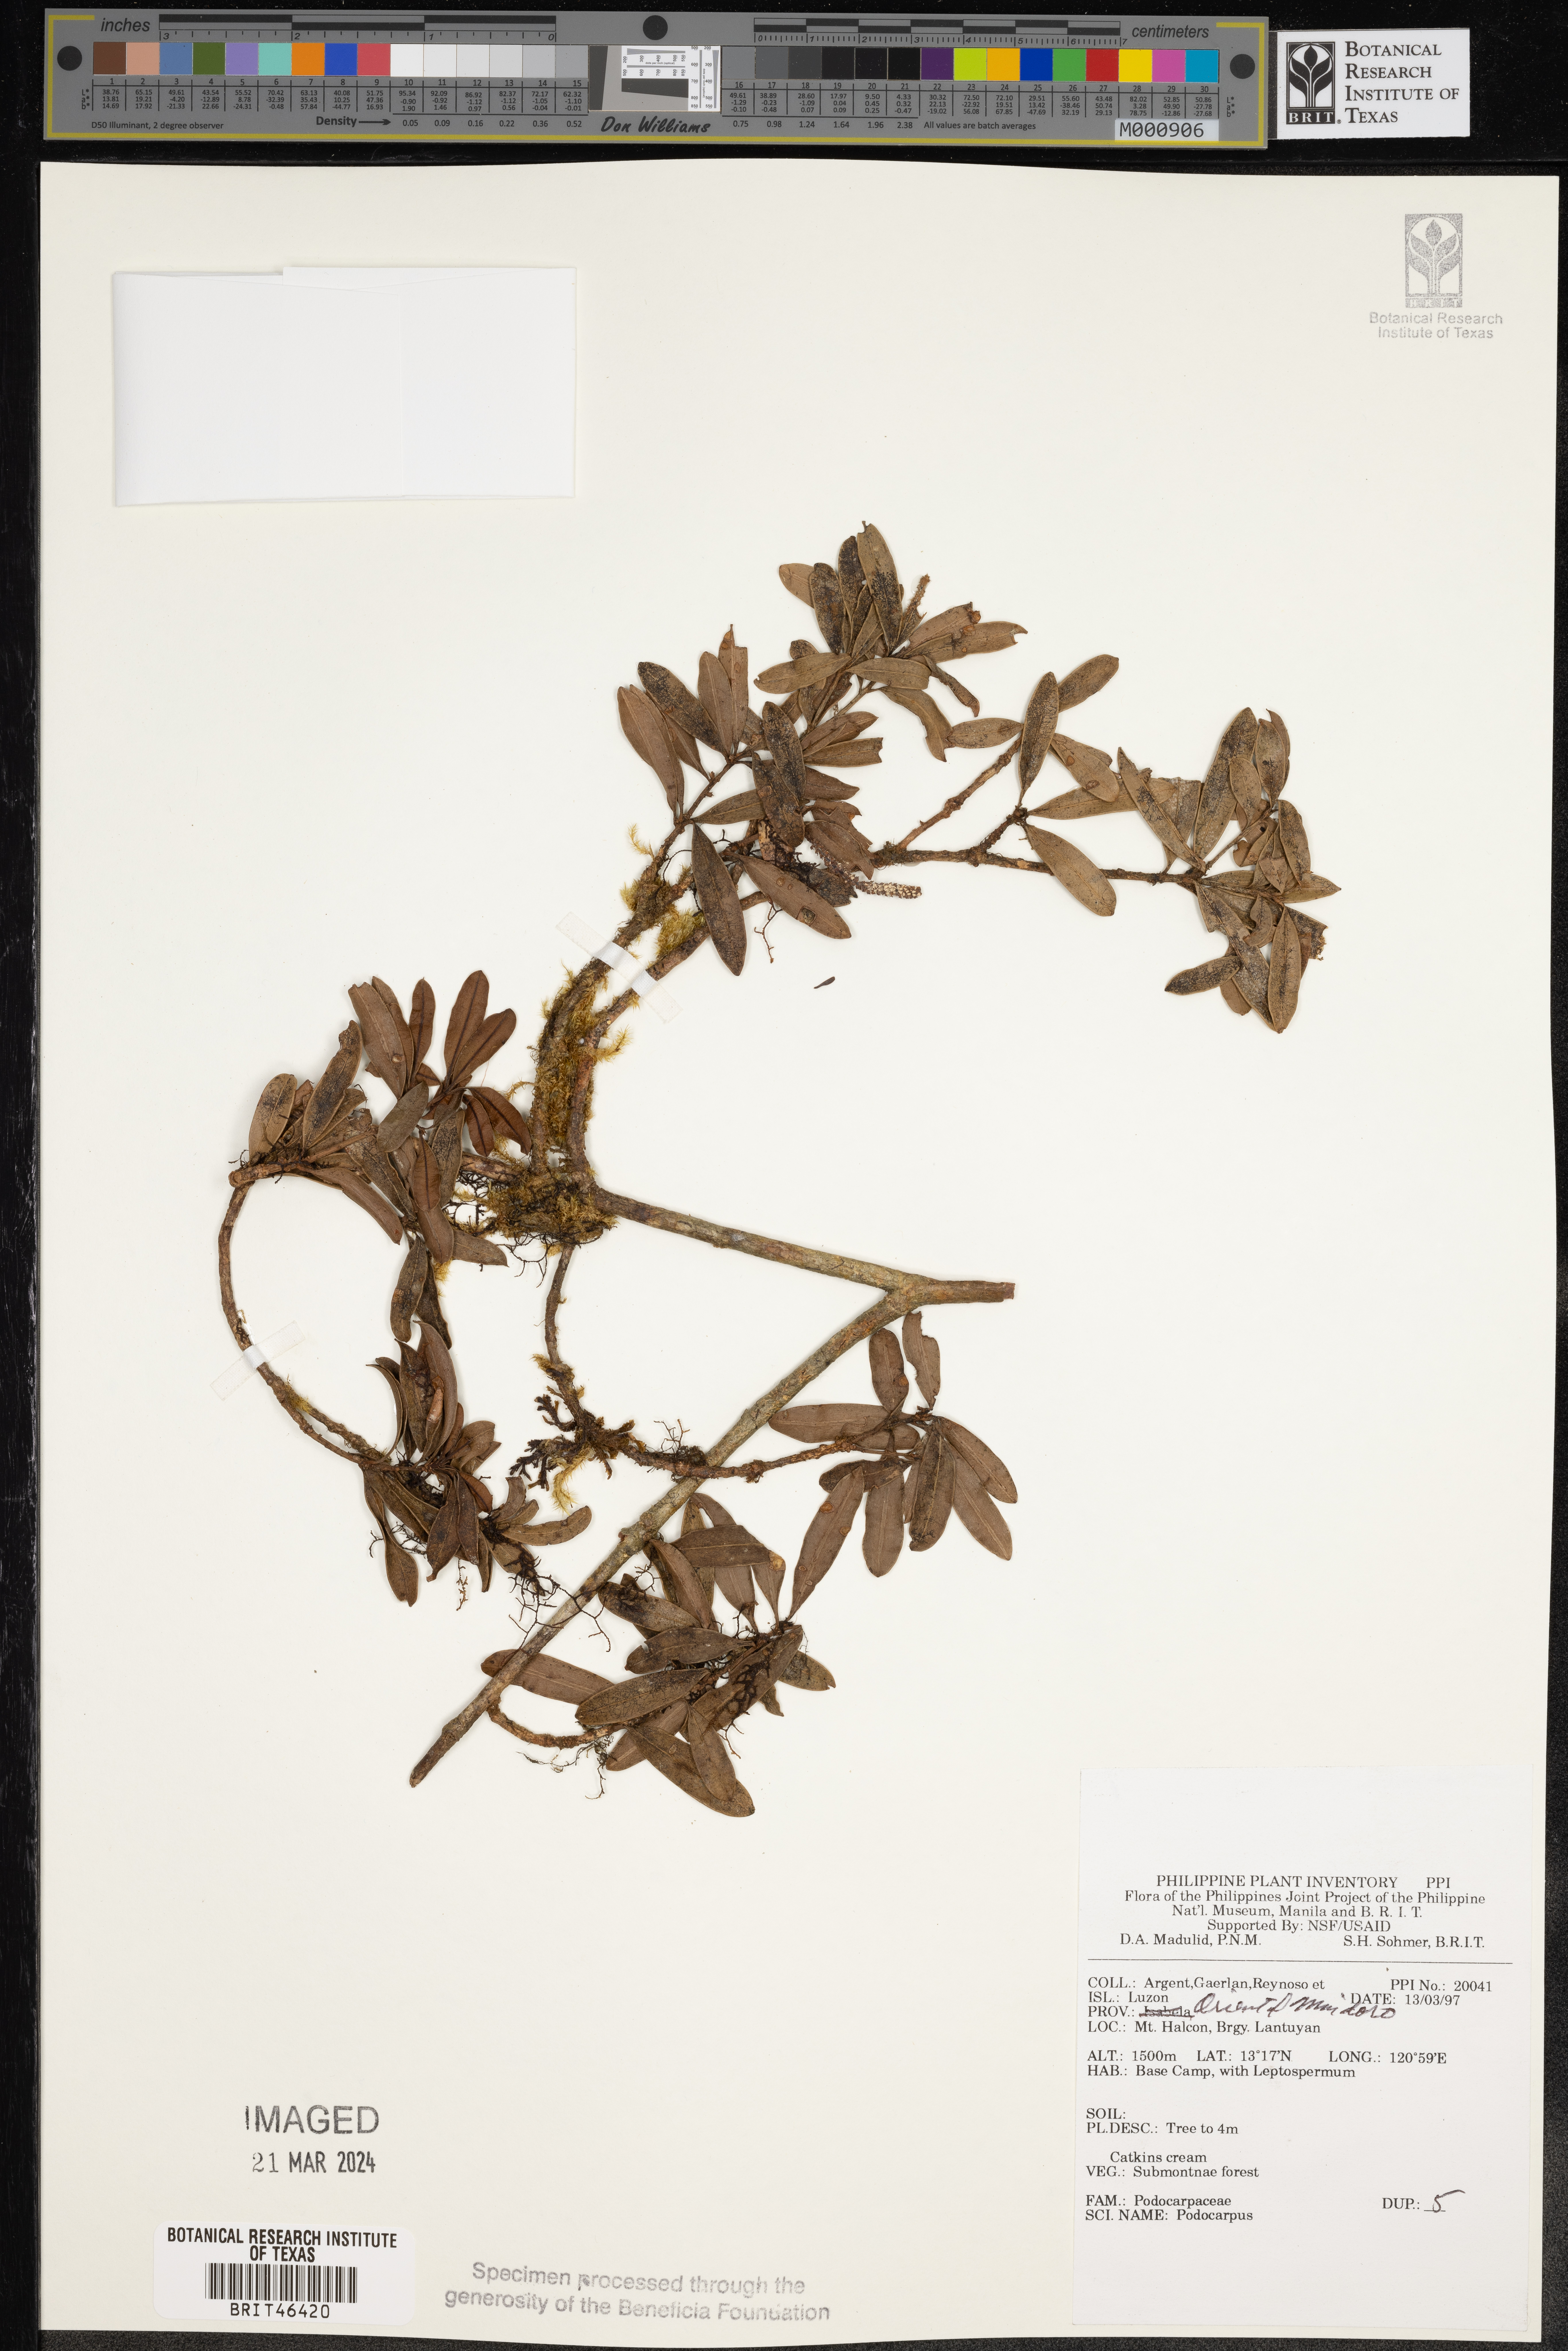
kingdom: Plantae
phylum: Tracheophyta
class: Pinopsida
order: Pinales
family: Podocarpaceae
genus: Podocarpus
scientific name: Podocarpus
